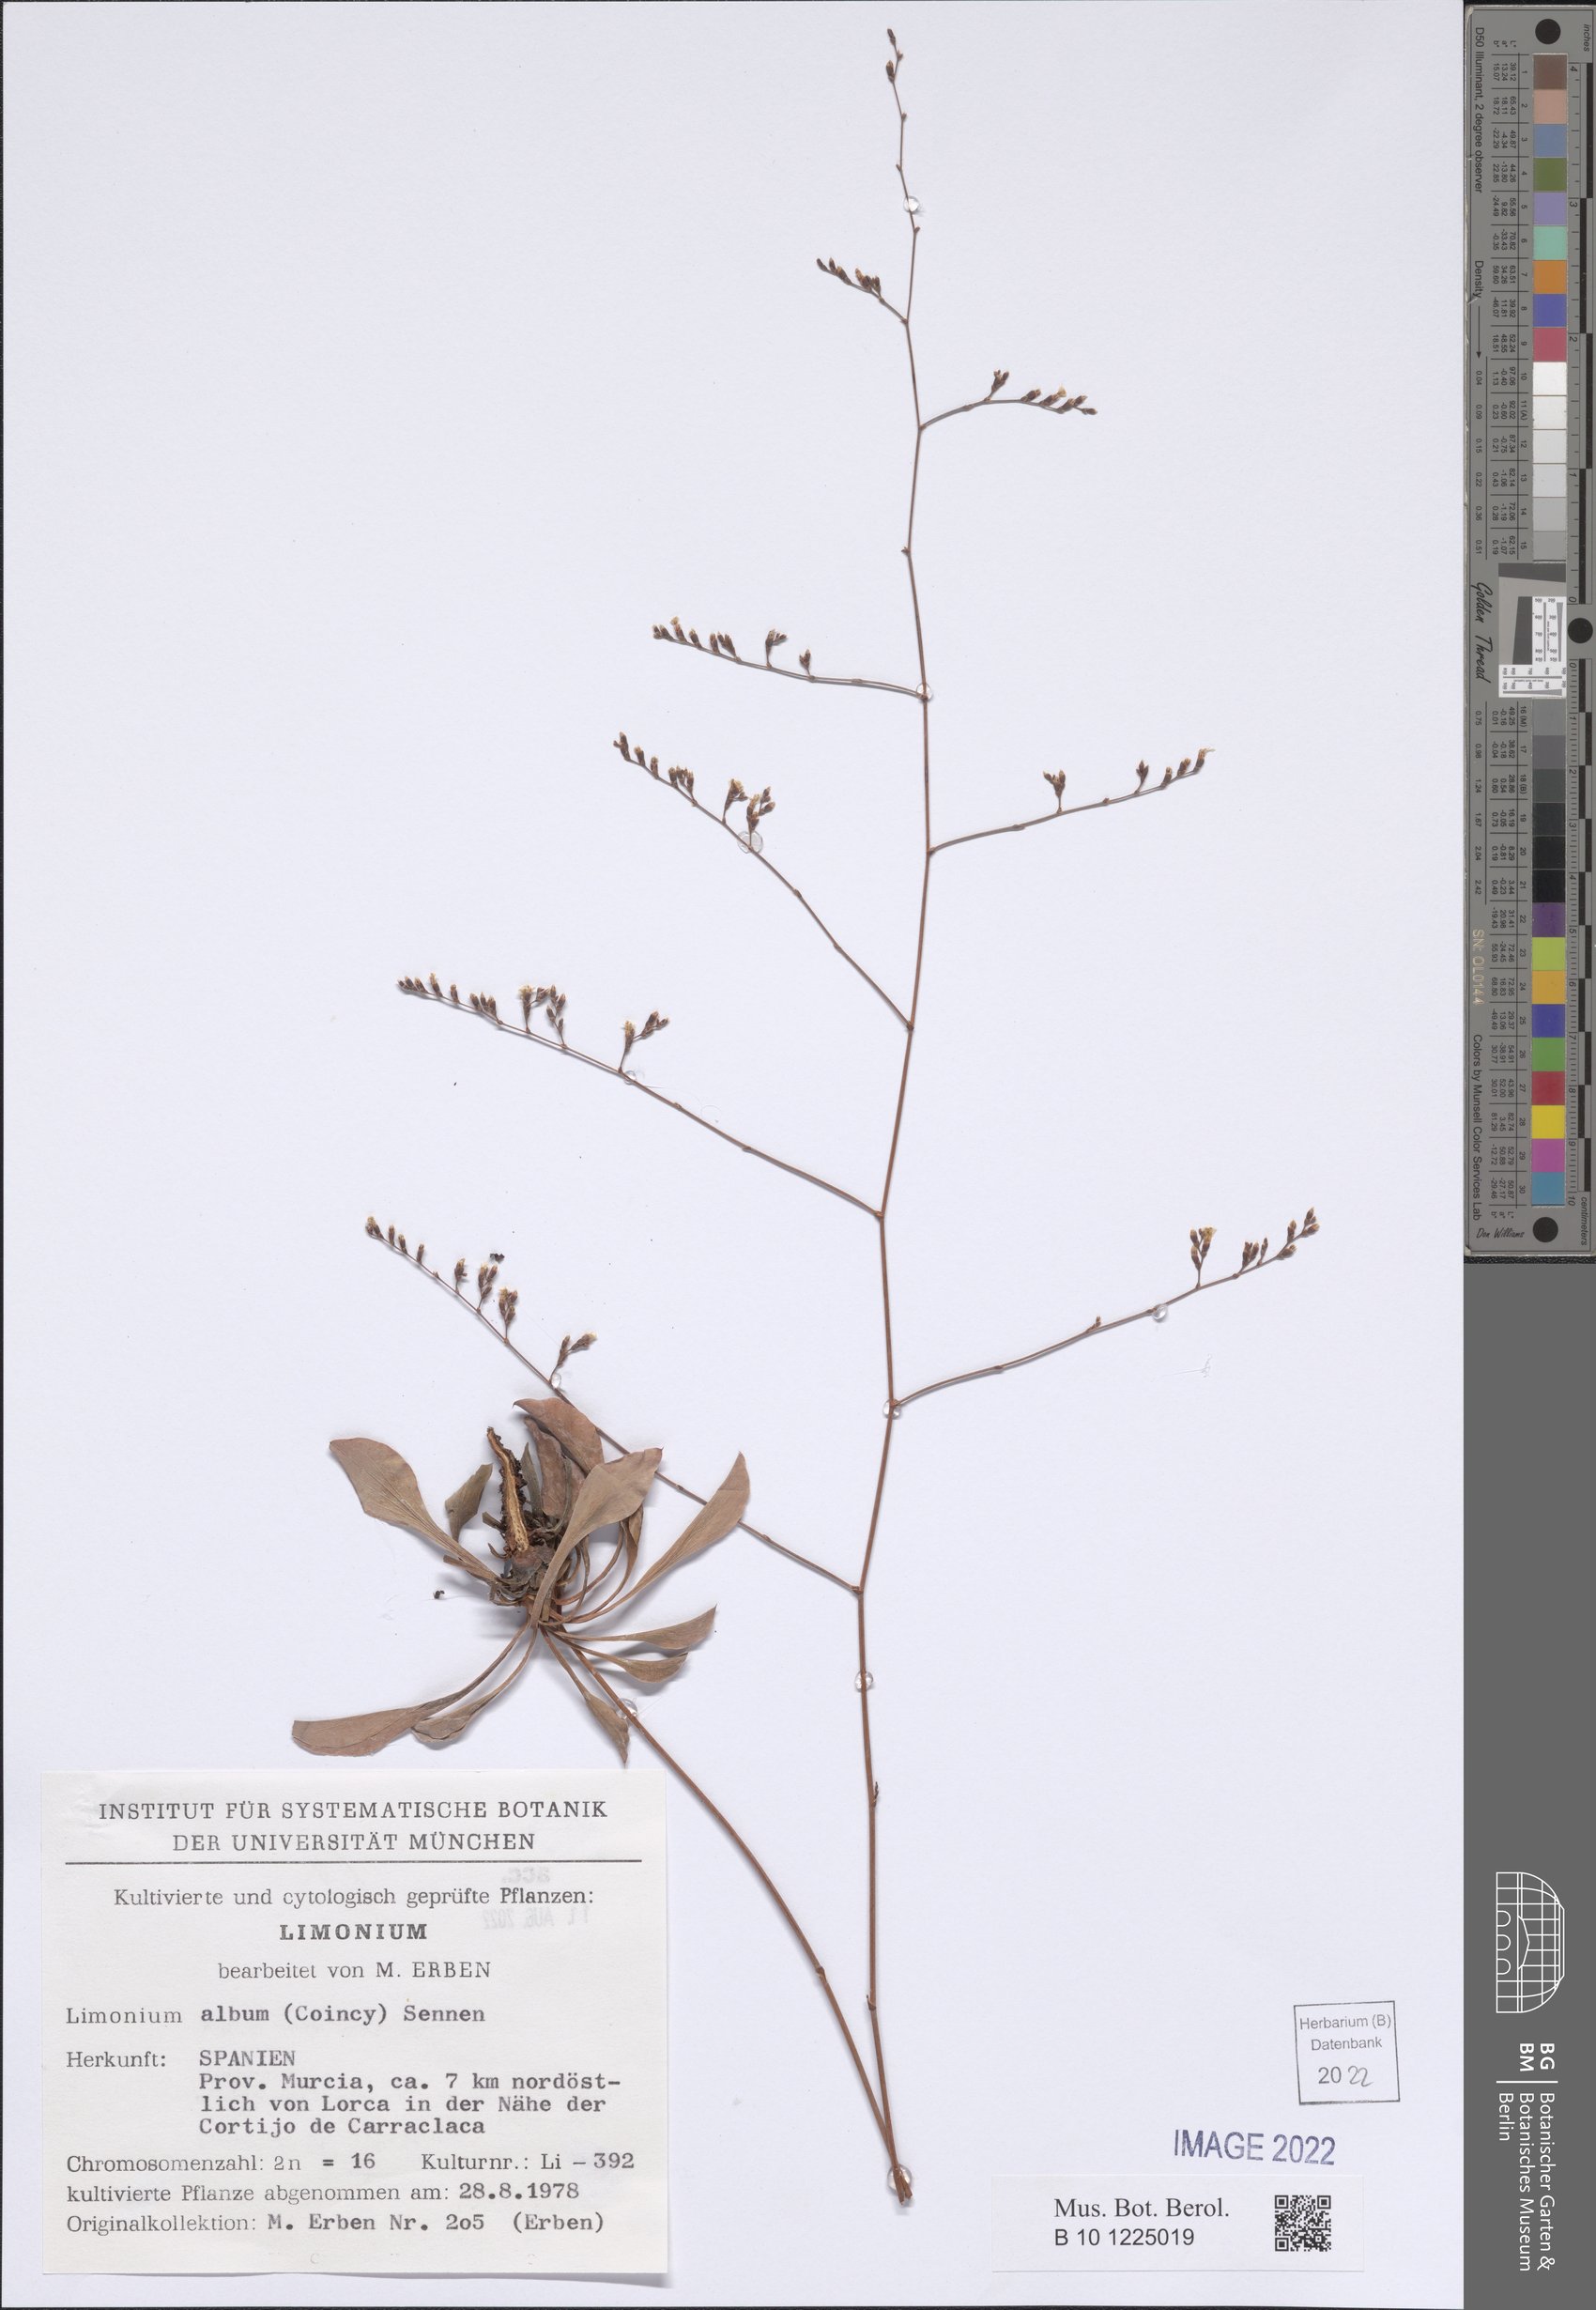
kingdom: Plantae
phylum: Tracheophyta
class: Magnoliopsida
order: Caryophyllales
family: Plumbaginaceae
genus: Limonium
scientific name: Limonium album
